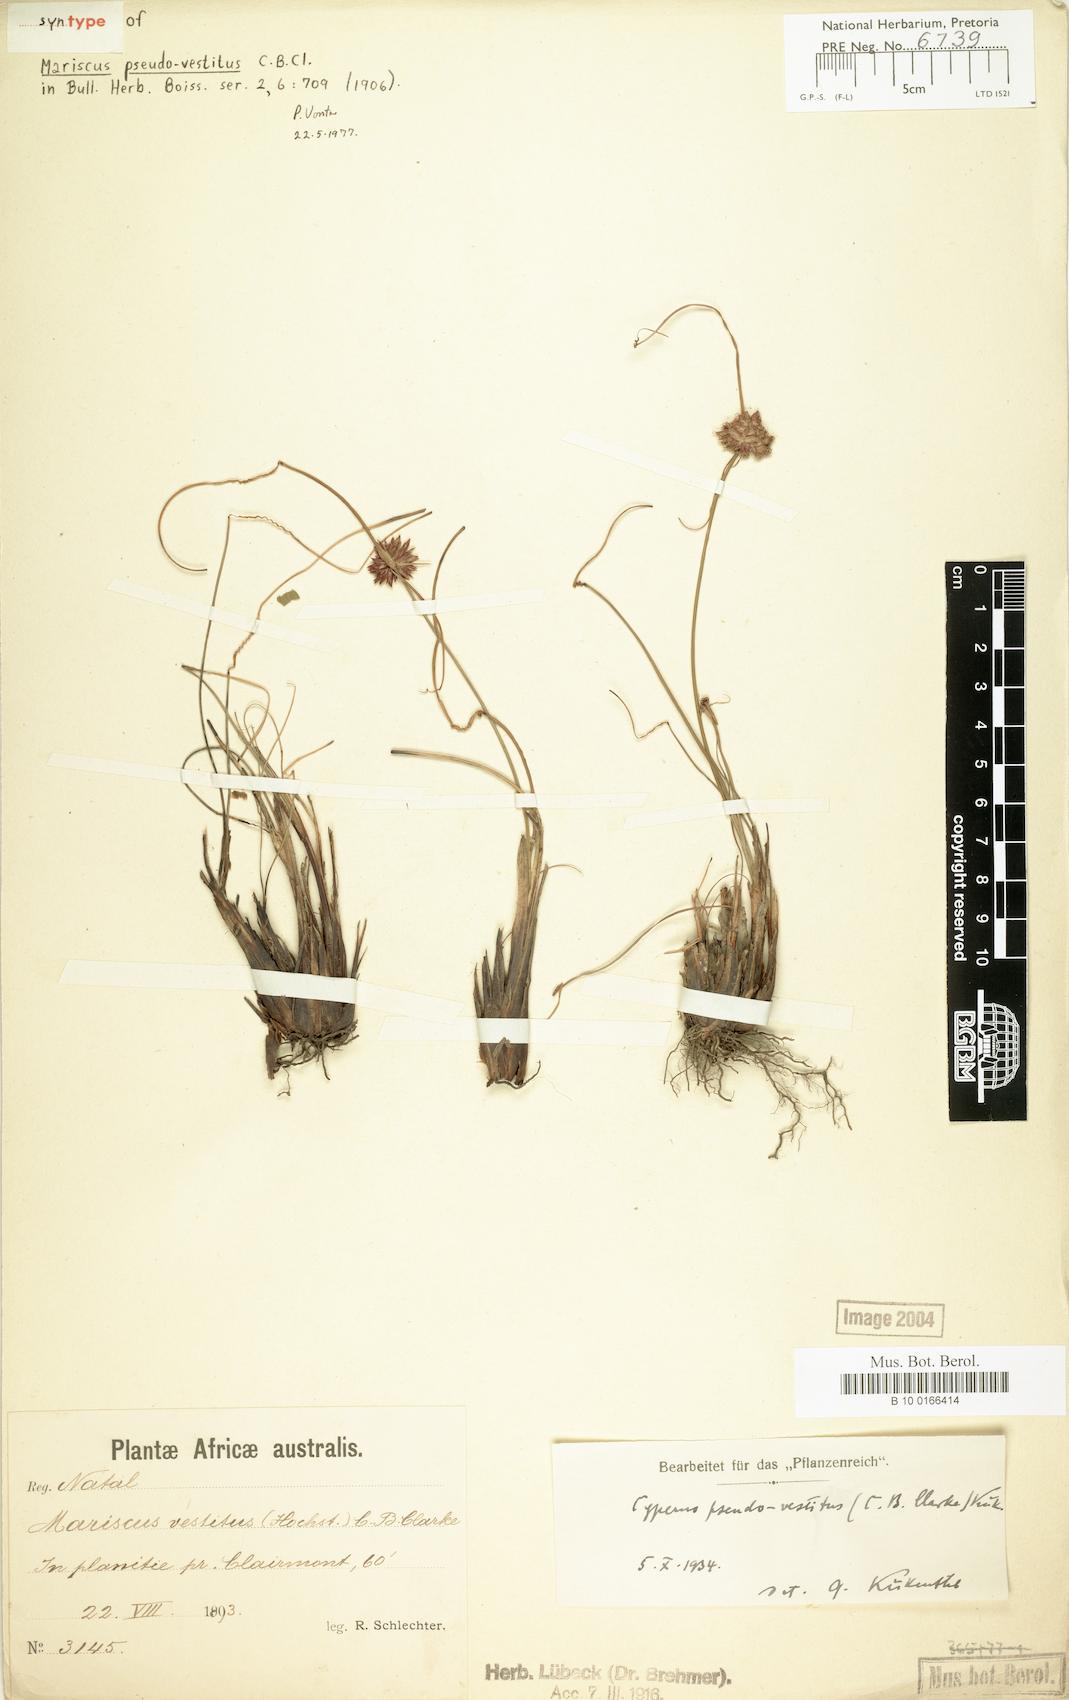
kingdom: Plantae
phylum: Tracheophyta
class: Liliopsida
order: Poales
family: Cyperaceae
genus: Cyperus
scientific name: Cyperus pseudovestitus
